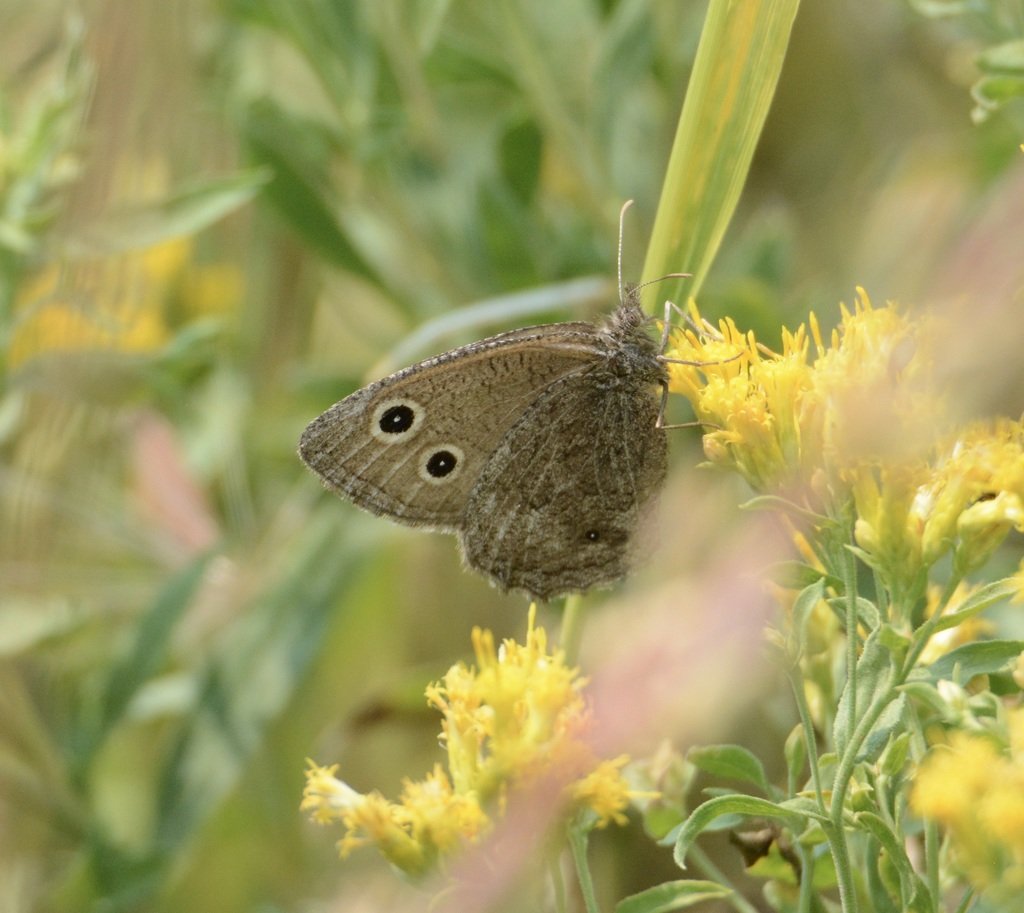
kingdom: Animalia
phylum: Arthropoda
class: Insecta
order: Lepidoptera
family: Nymphalidae
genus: Cercyonis
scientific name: Cercyonis oetus
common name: Small Wood-Nymph
